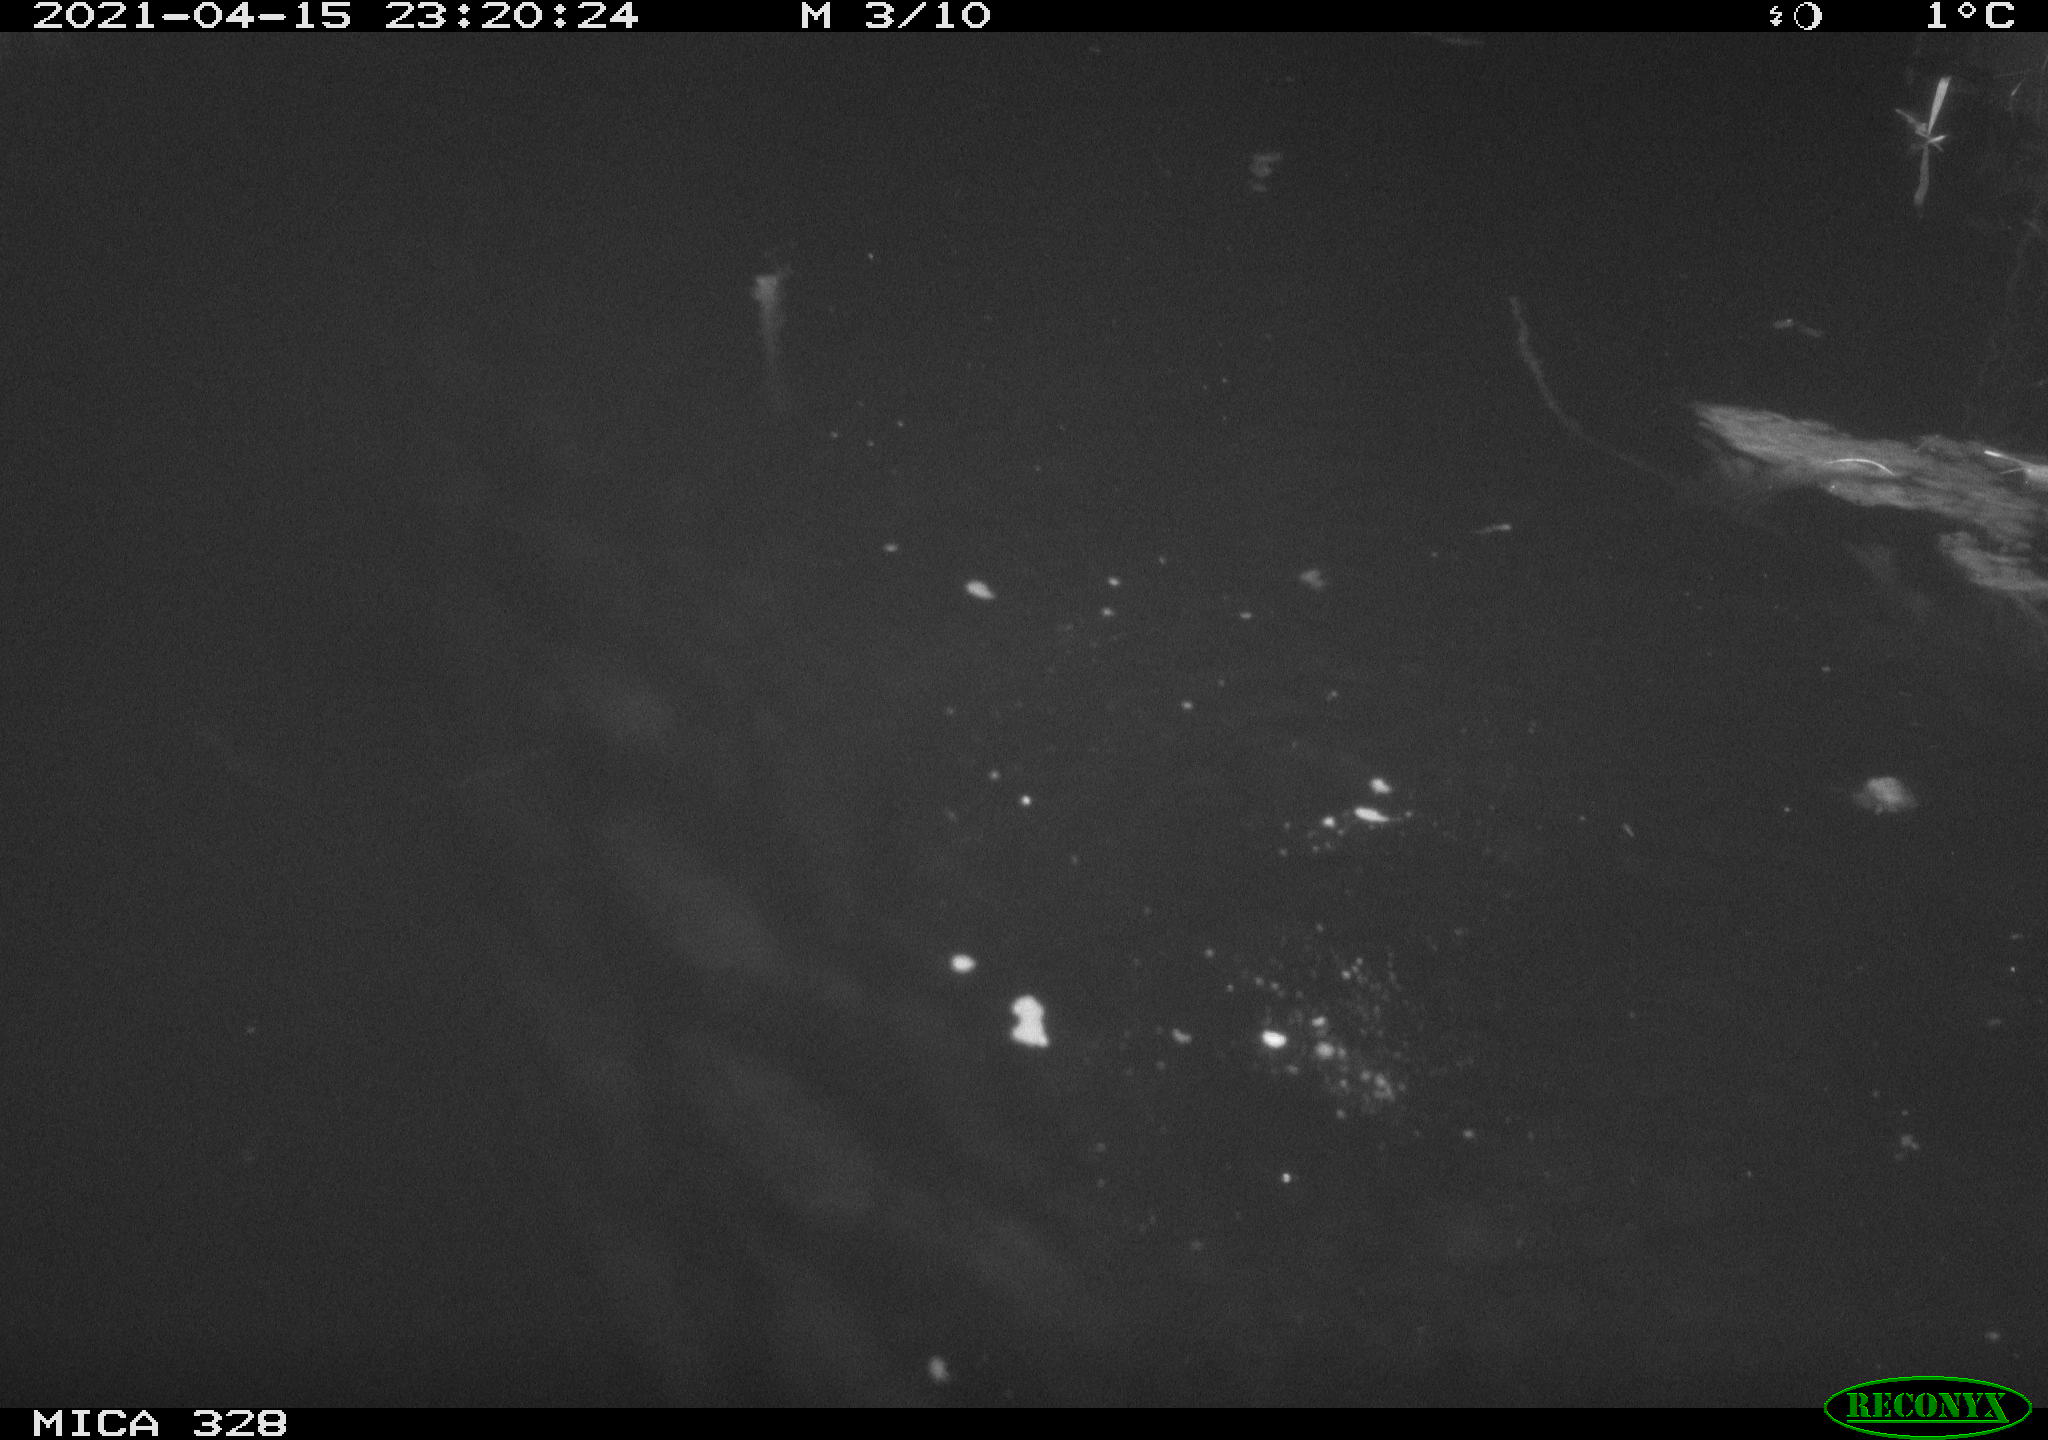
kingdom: Animalia
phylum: Chordata
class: Mammalia
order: Rodentia
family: Cricetidae
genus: Ondatra
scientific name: Ondatra zibethicus
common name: Muskrat
